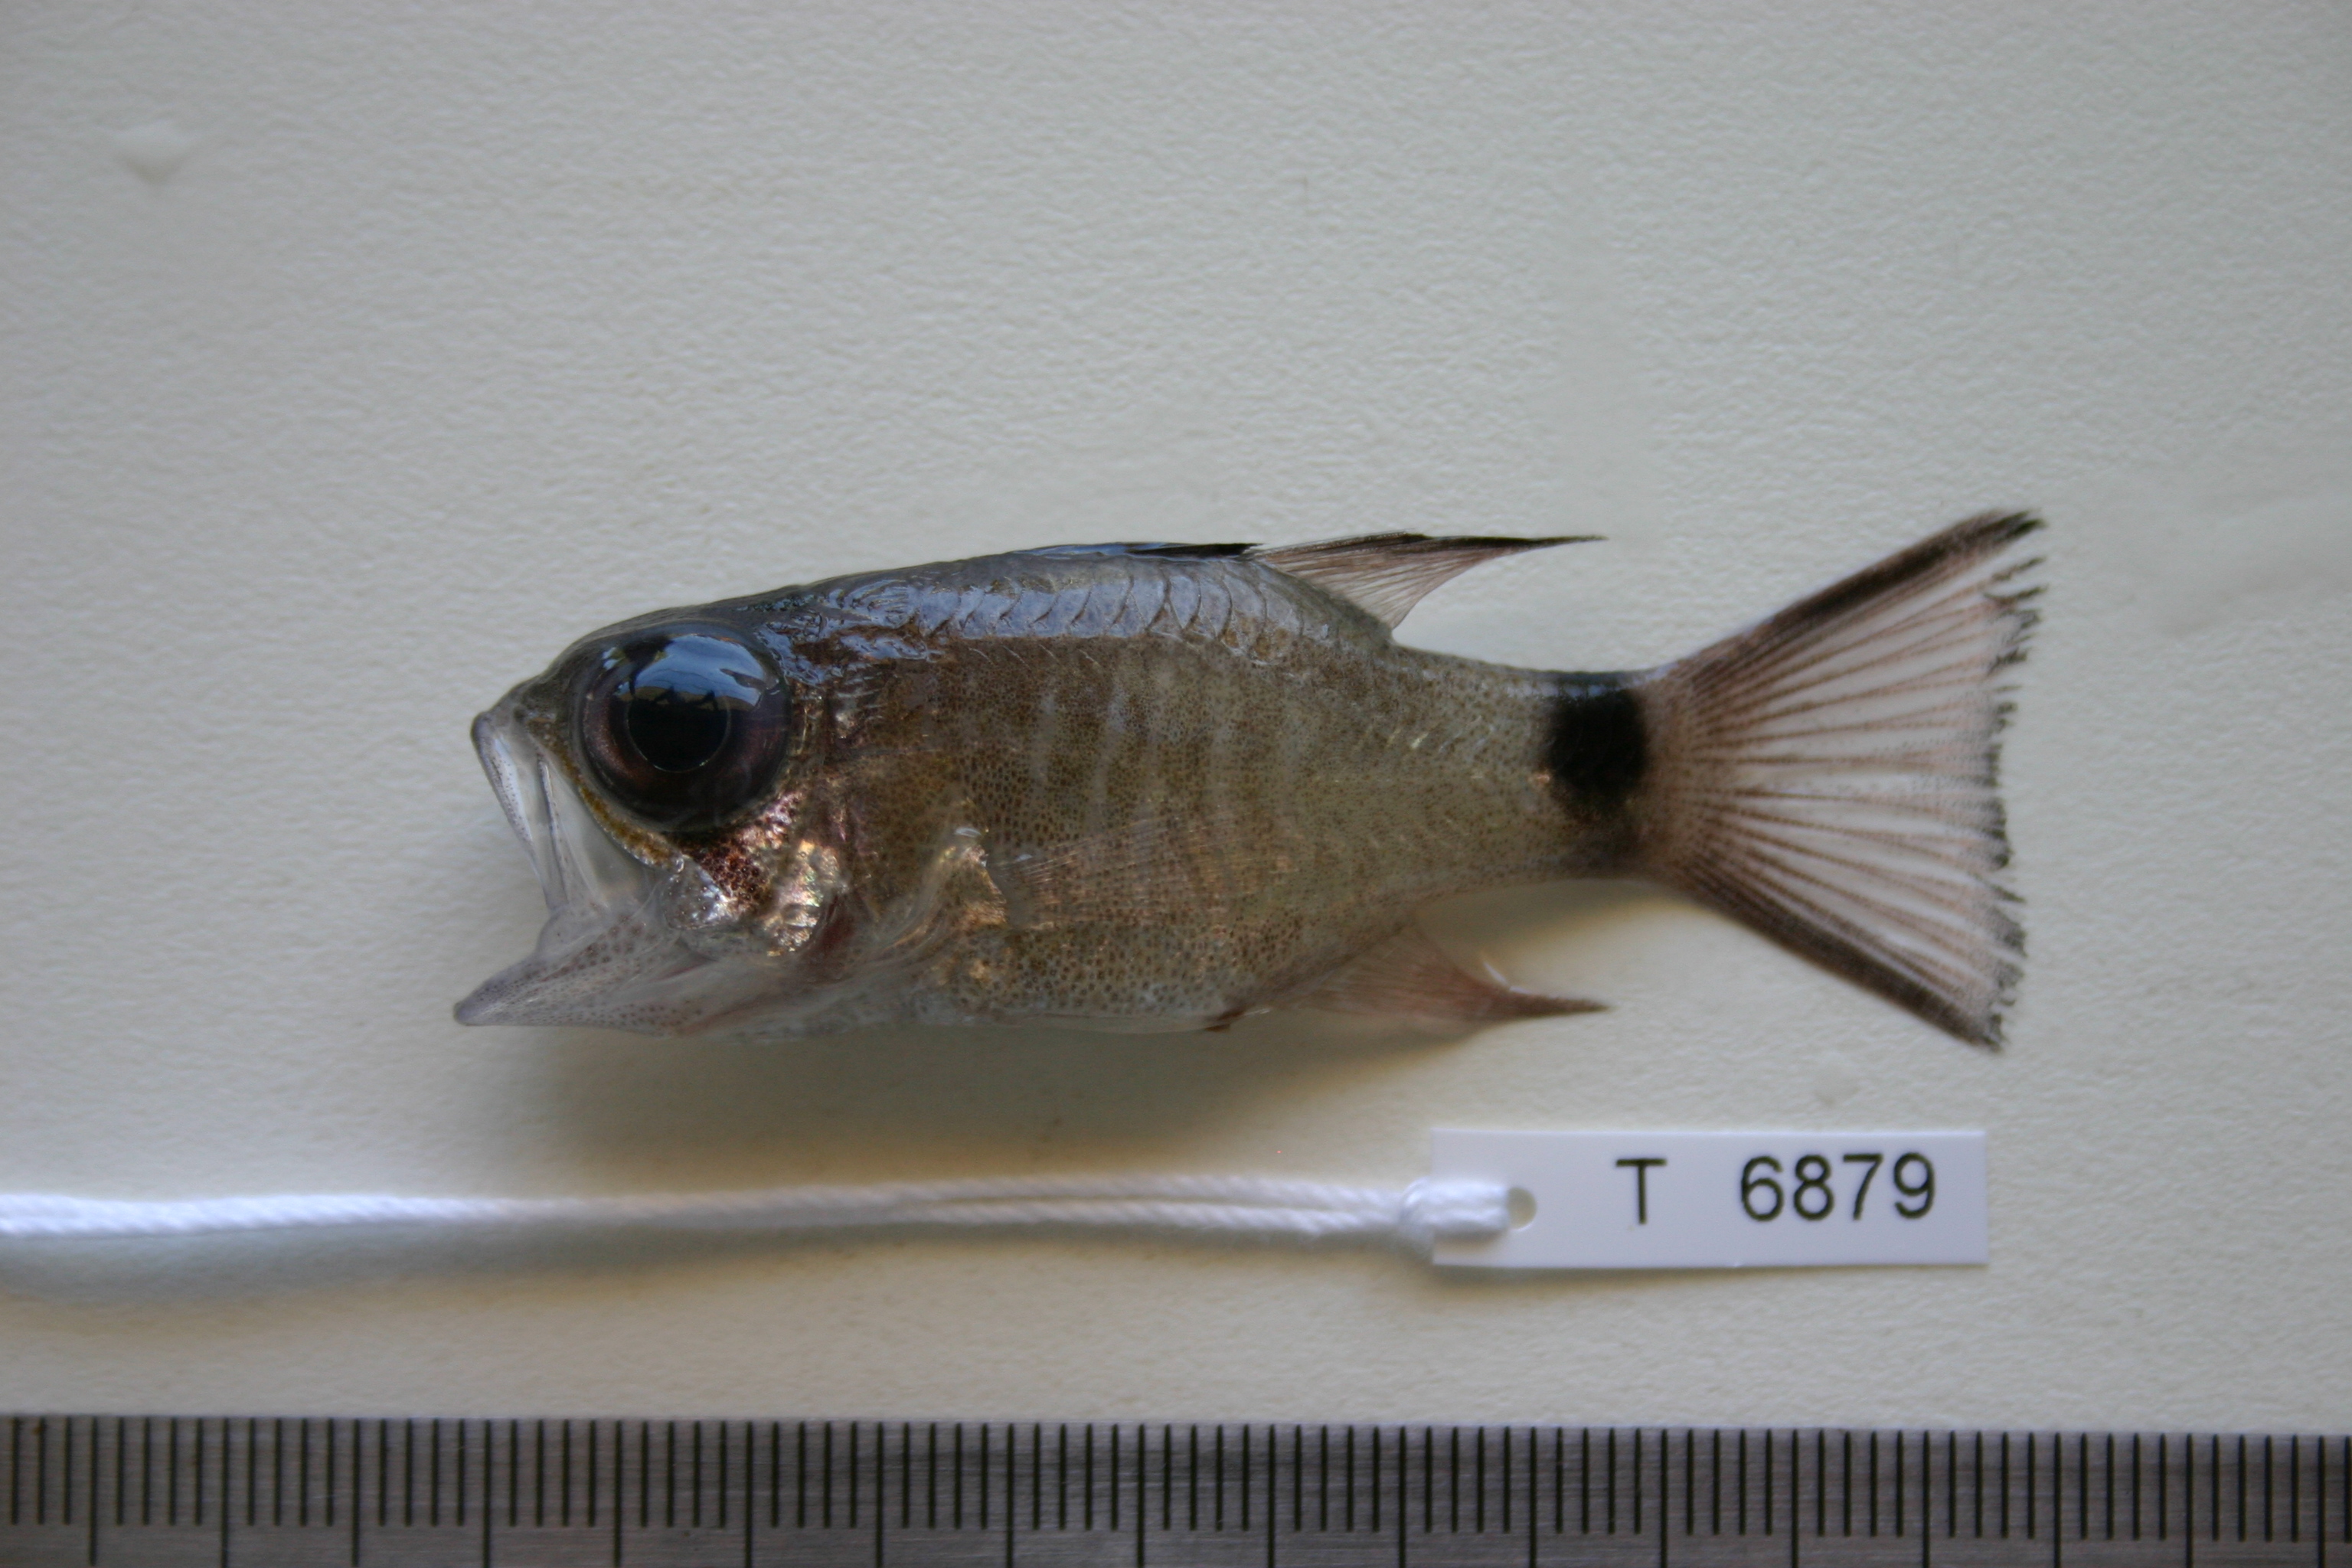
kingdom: Animalia
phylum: Chordata
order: Perciformes
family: Apogonidae
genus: Nectamia
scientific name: Nectamia savayensis
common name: Samoan cardinalfish
